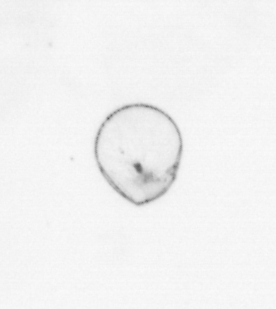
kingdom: Chromista
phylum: Myzozoa
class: Dinophyceae
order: Noctilucales
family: Noctilucaceae
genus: Noctiluca
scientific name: Noctiluca scintillans
